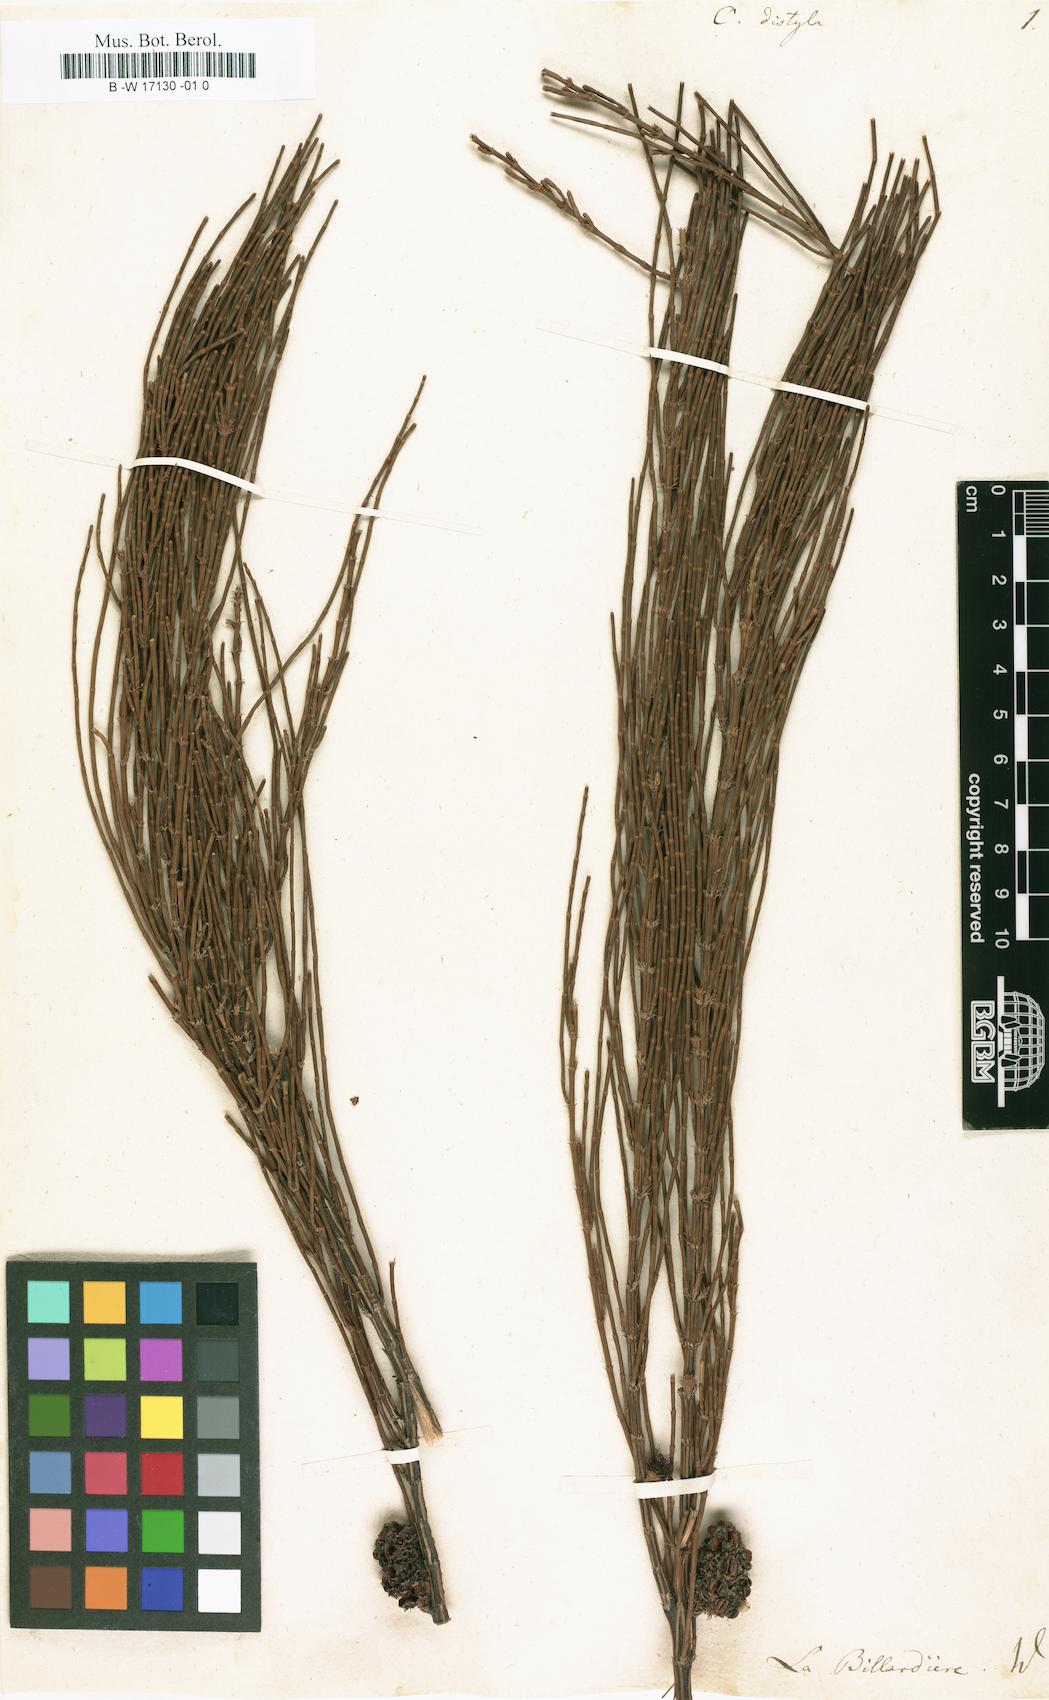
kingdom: Plantae
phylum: Tracheophyta
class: Magnoliopsida
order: Fagales
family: Casuarinaceae
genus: Allocasuarina
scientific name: Allocasuarina distyla
